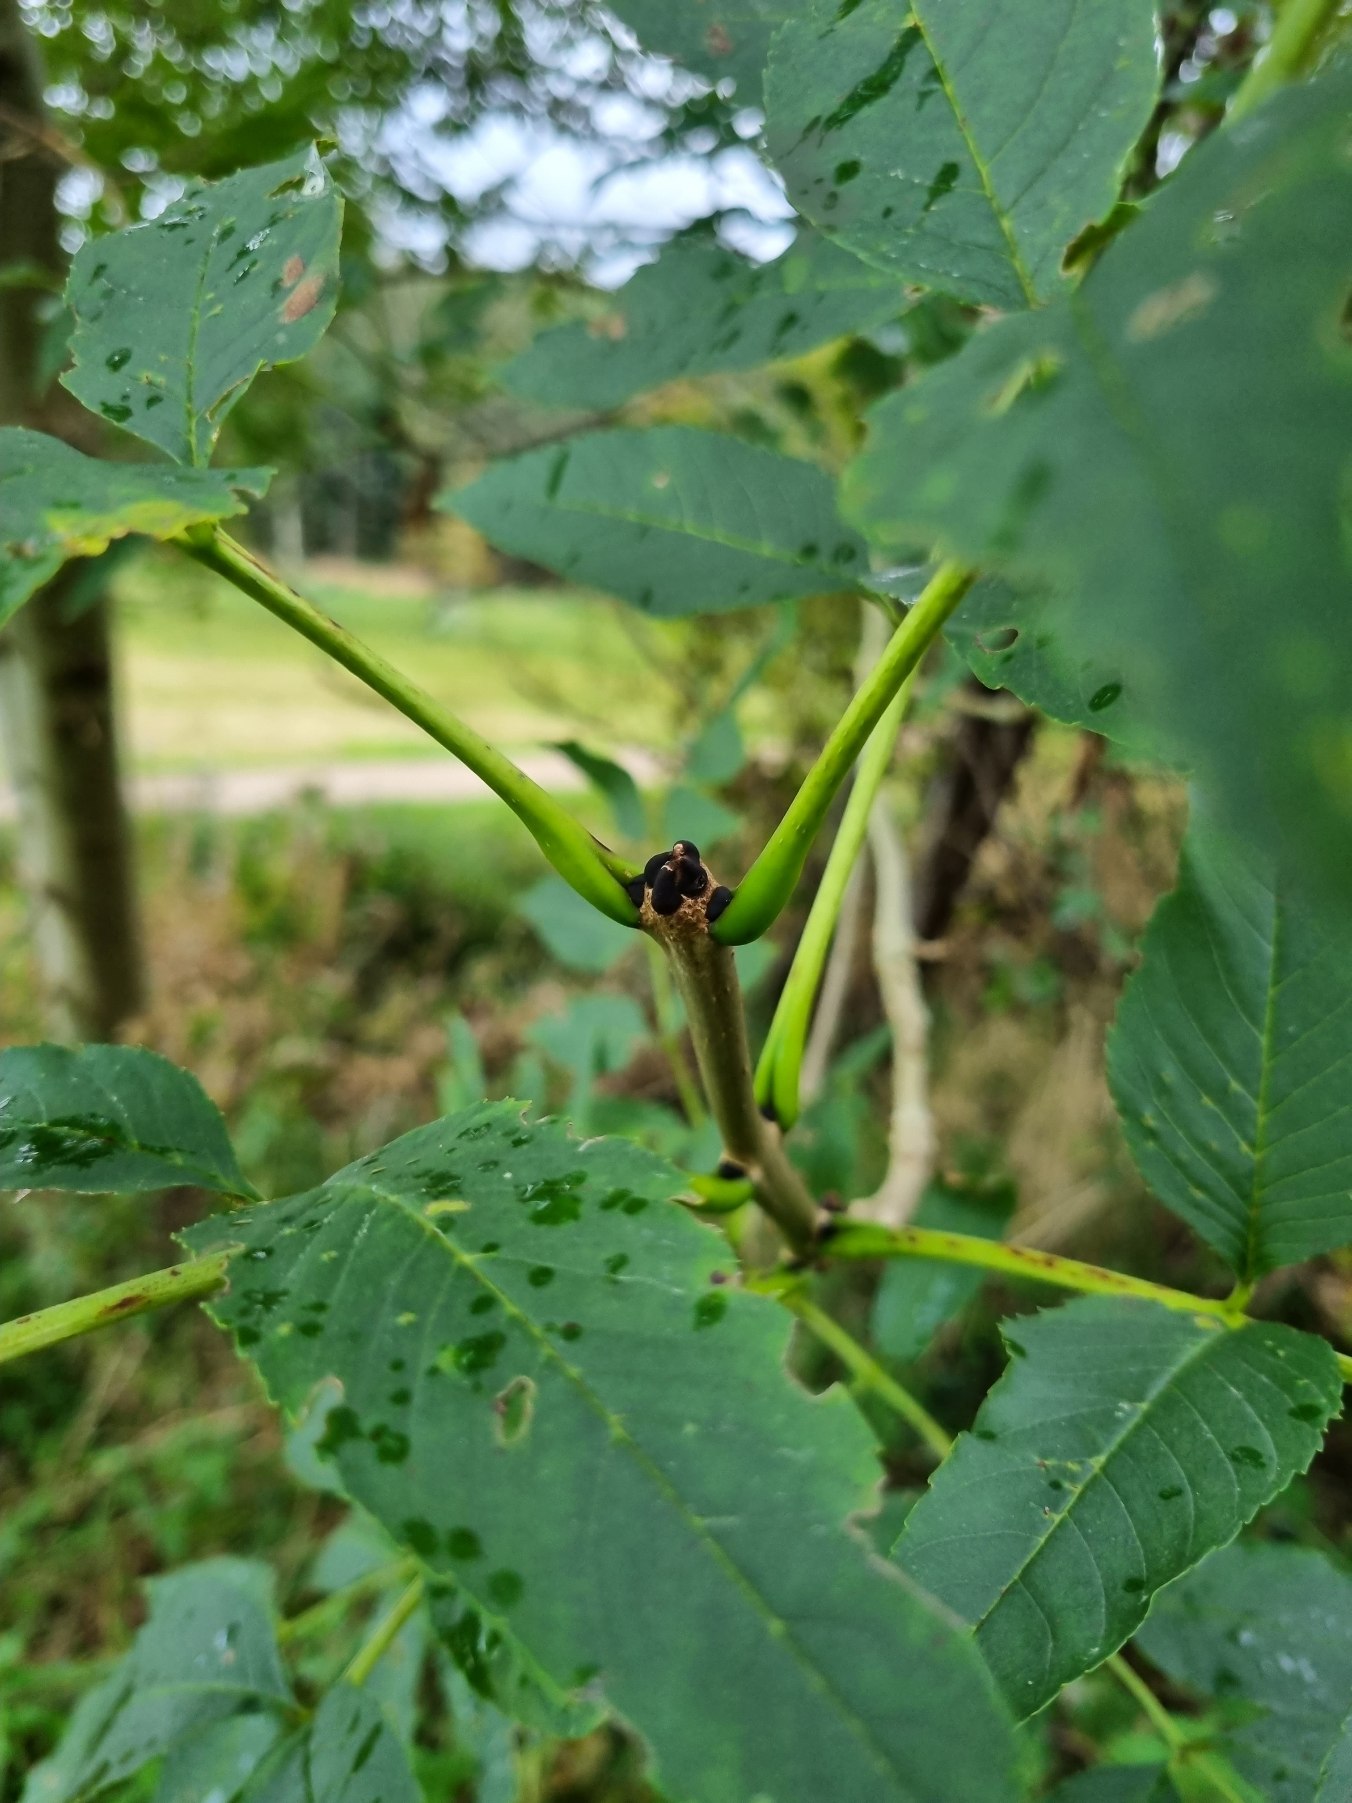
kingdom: Plantae
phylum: Tracheophyta
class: Magnoliopsida
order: Lamiales
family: Oleaceae
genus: Fraxinus
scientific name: Fraxinus excelsior
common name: Ask
